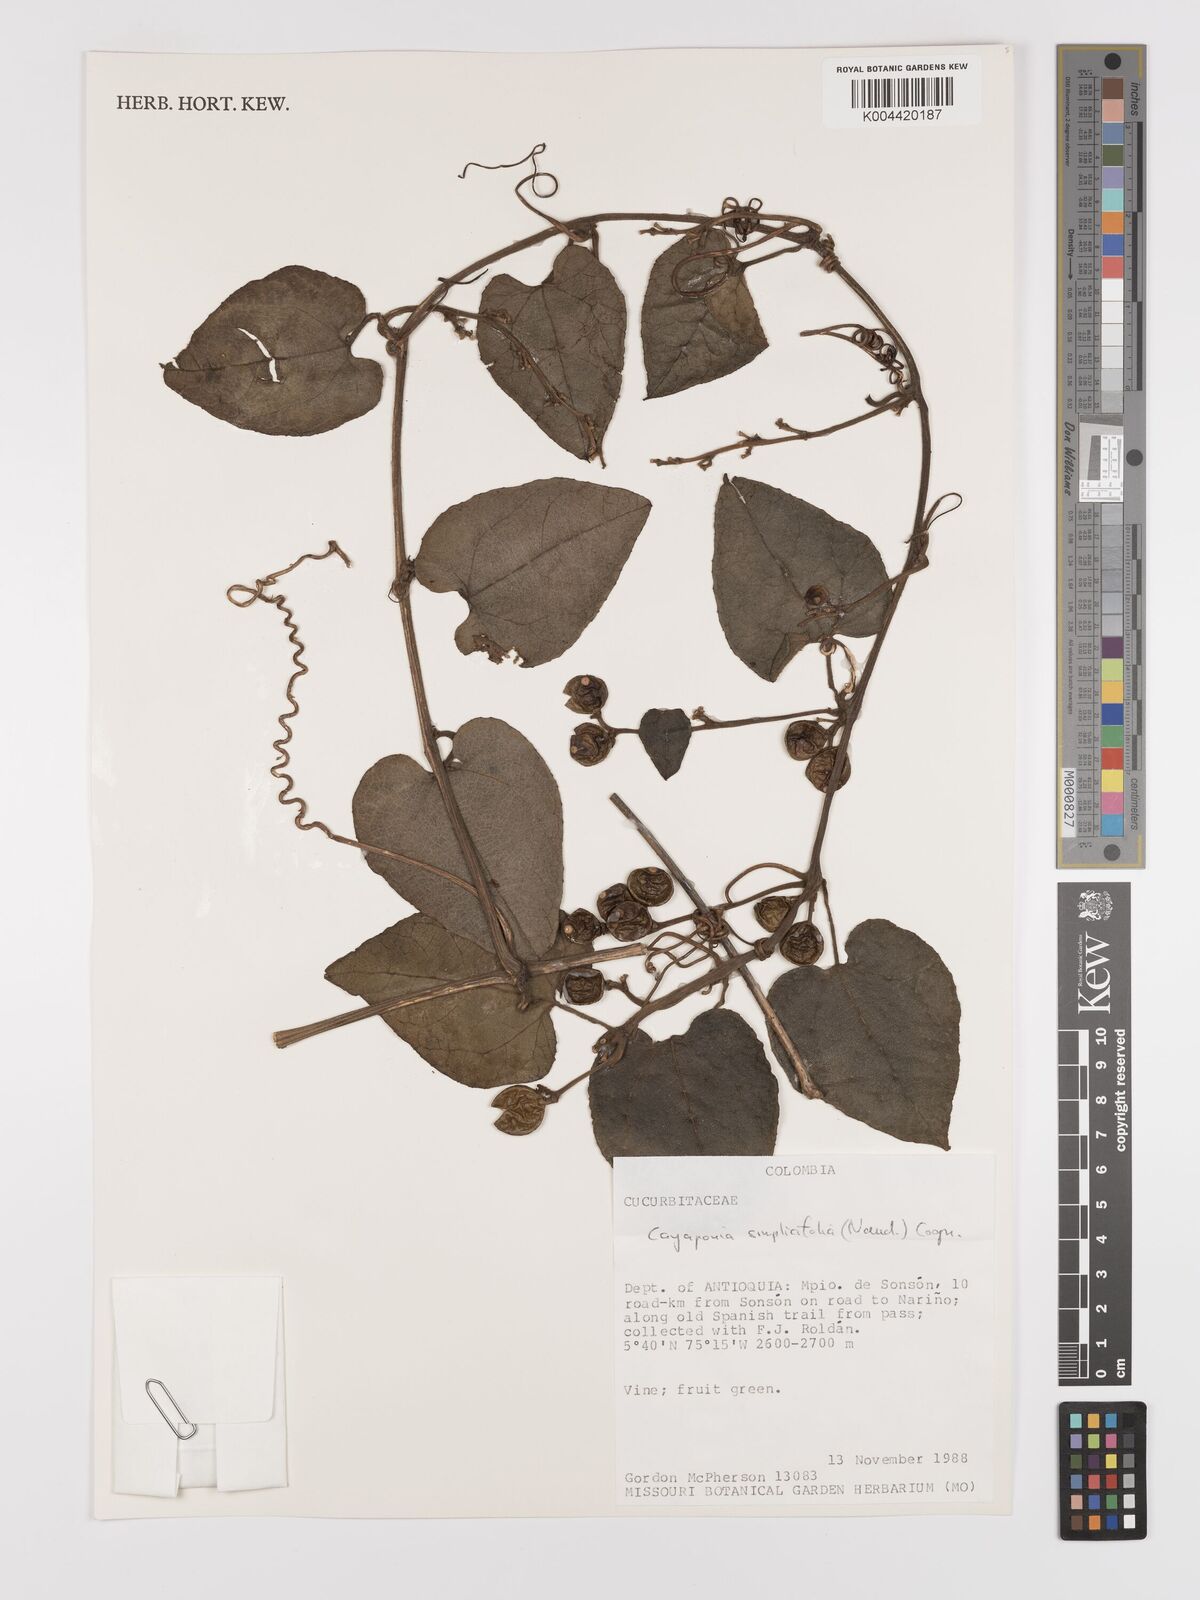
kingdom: Plantae
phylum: Tracheophyta
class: Magnoliopsida
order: Cucurbitales
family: Cucurbitaceae
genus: Cayaponia
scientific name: Cayaponia simplicifolia
